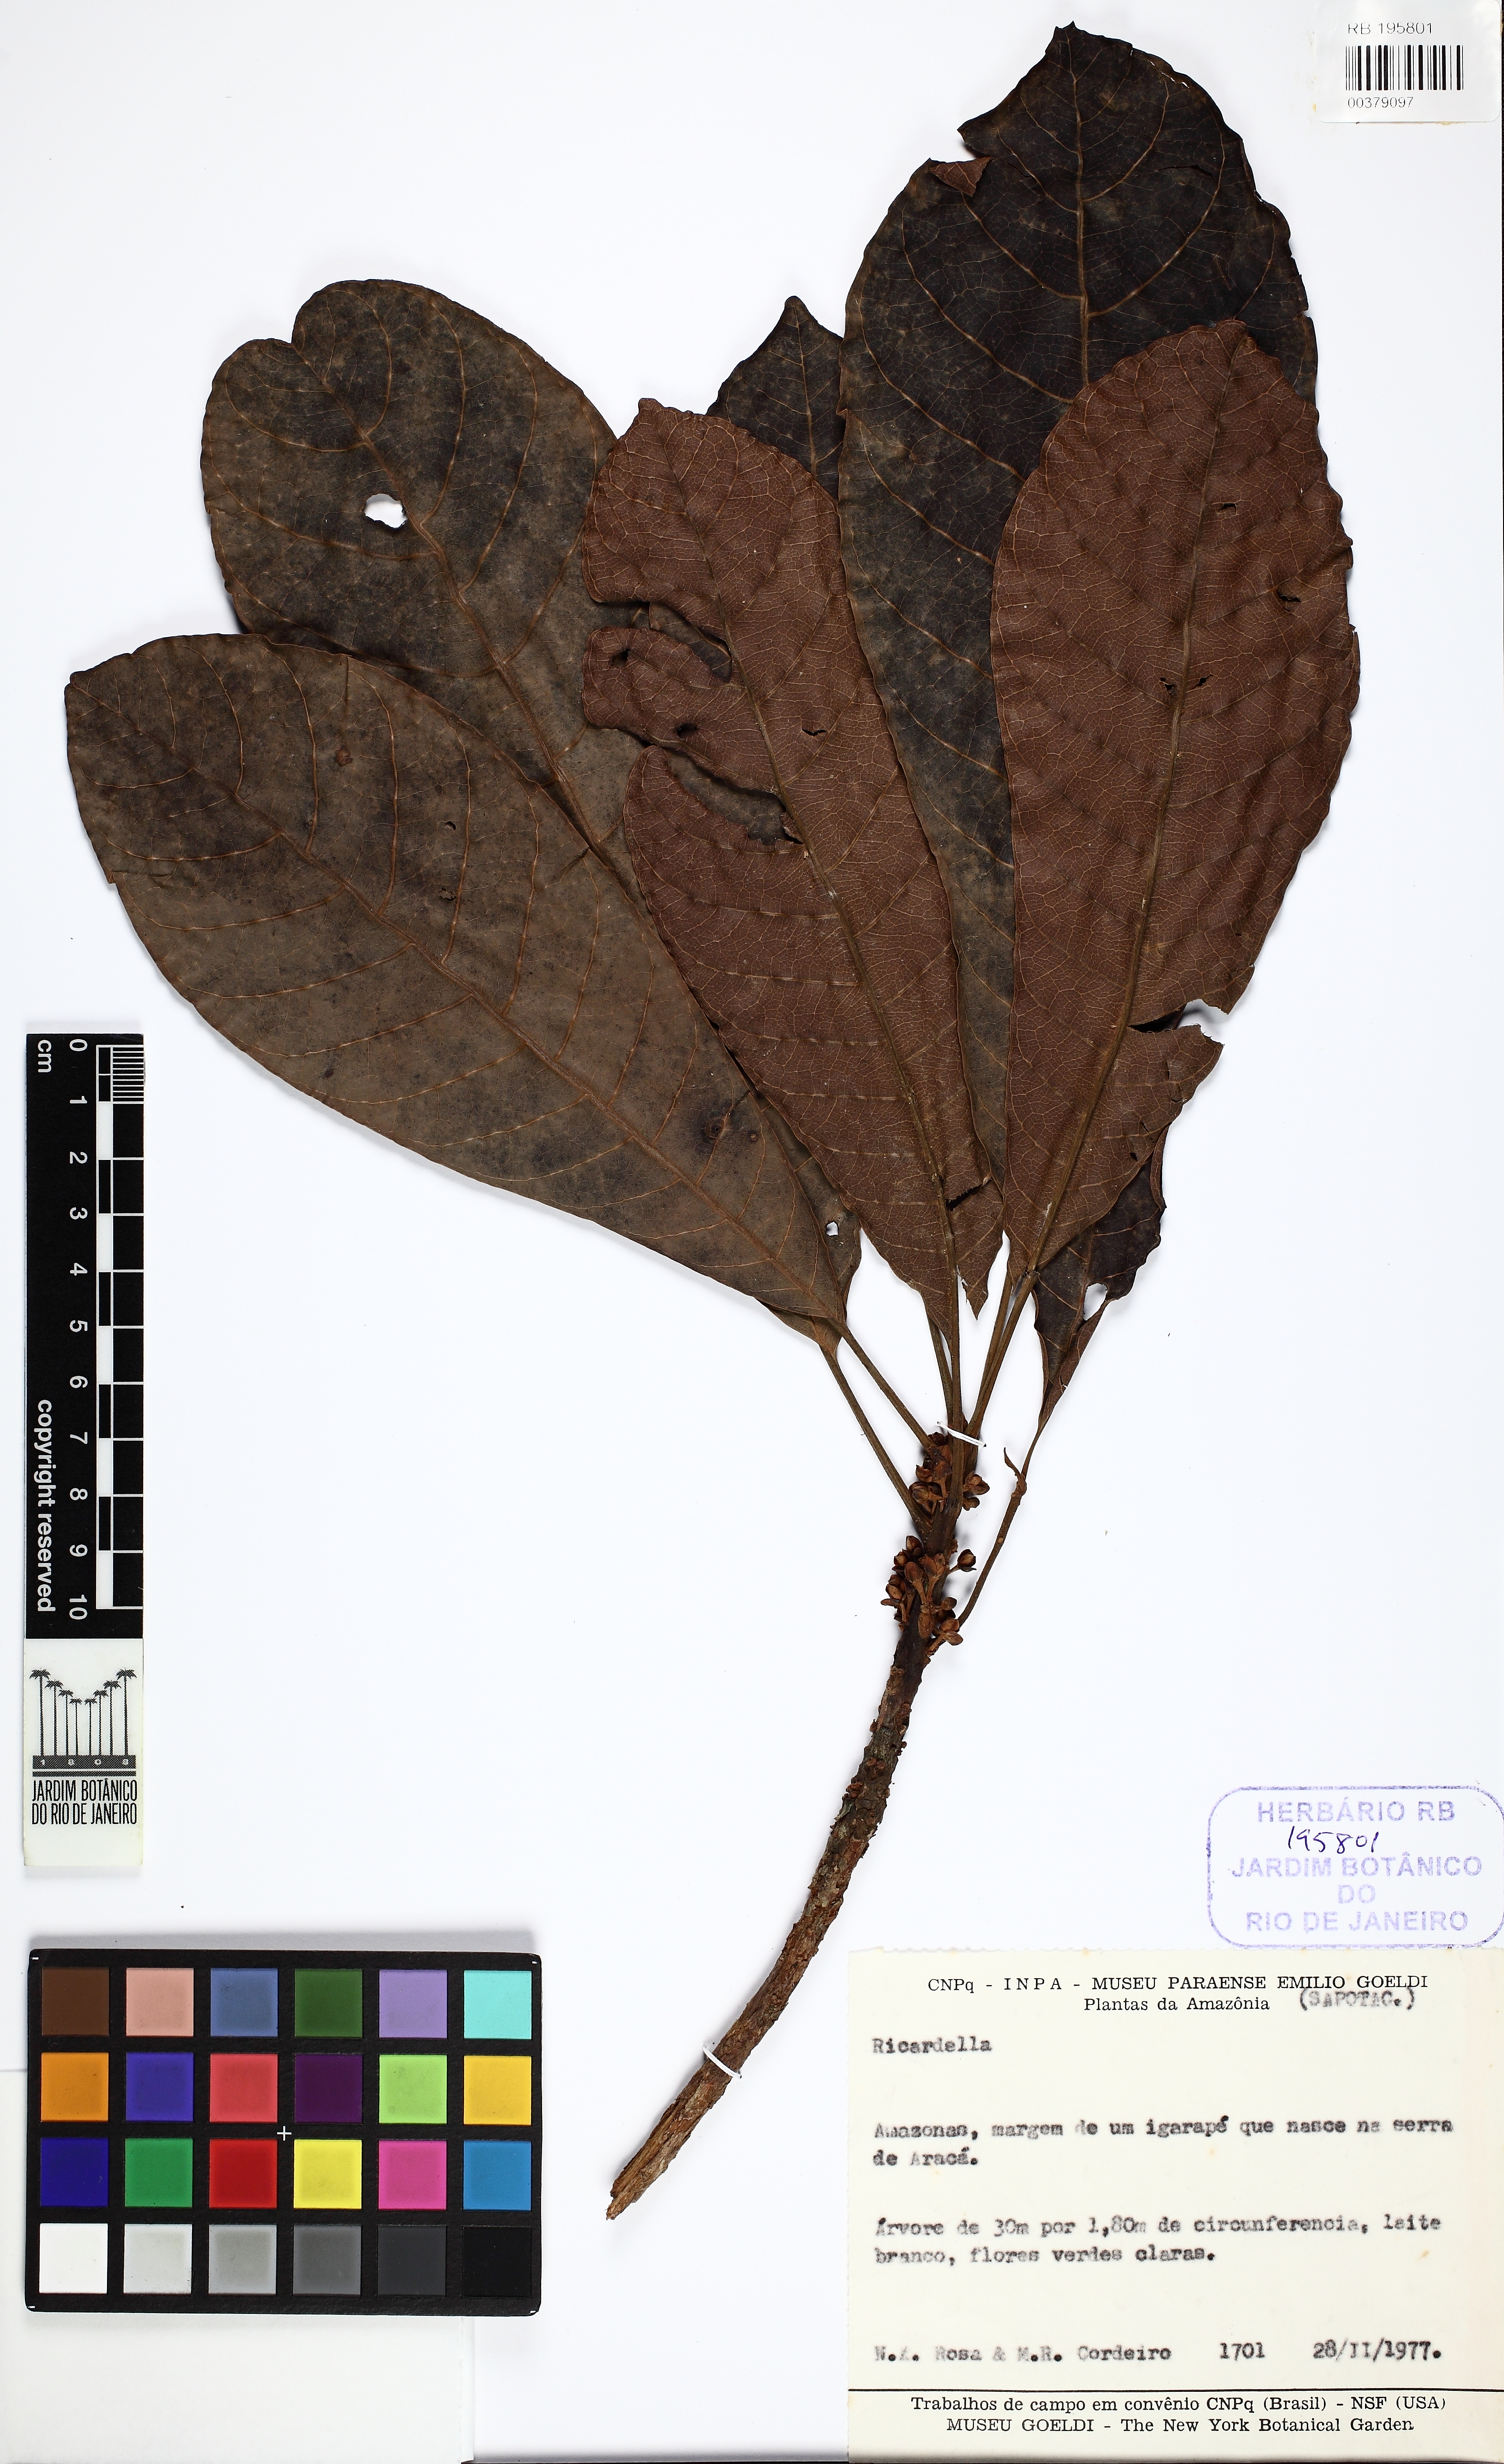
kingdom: Plantae
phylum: Tracheophyta
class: Magnoliopsida
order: Ericales
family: Sapotaceae
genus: Pouteria
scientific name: Pouteria guianensis
